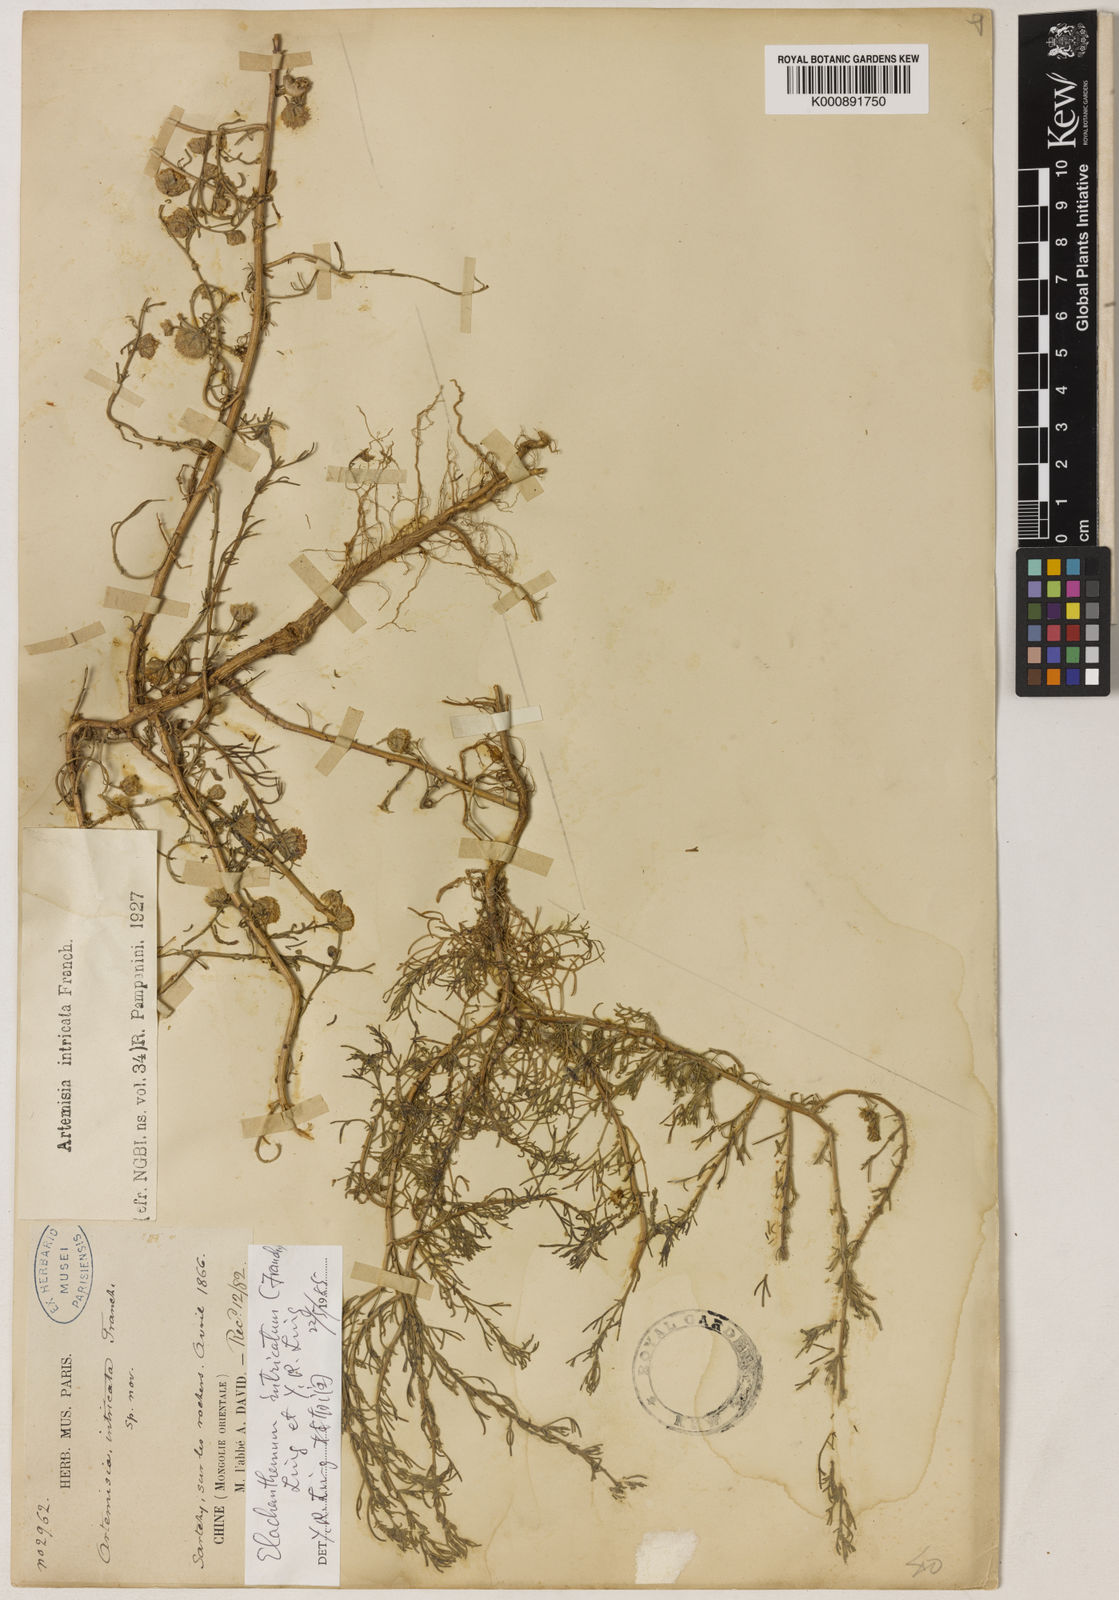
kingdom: Plantae
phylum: Tracheophyta
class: Magnoliopsida
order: Asterales
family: Asteraceae
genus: Elachanthemum
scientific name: Elachanthemum intricatum
